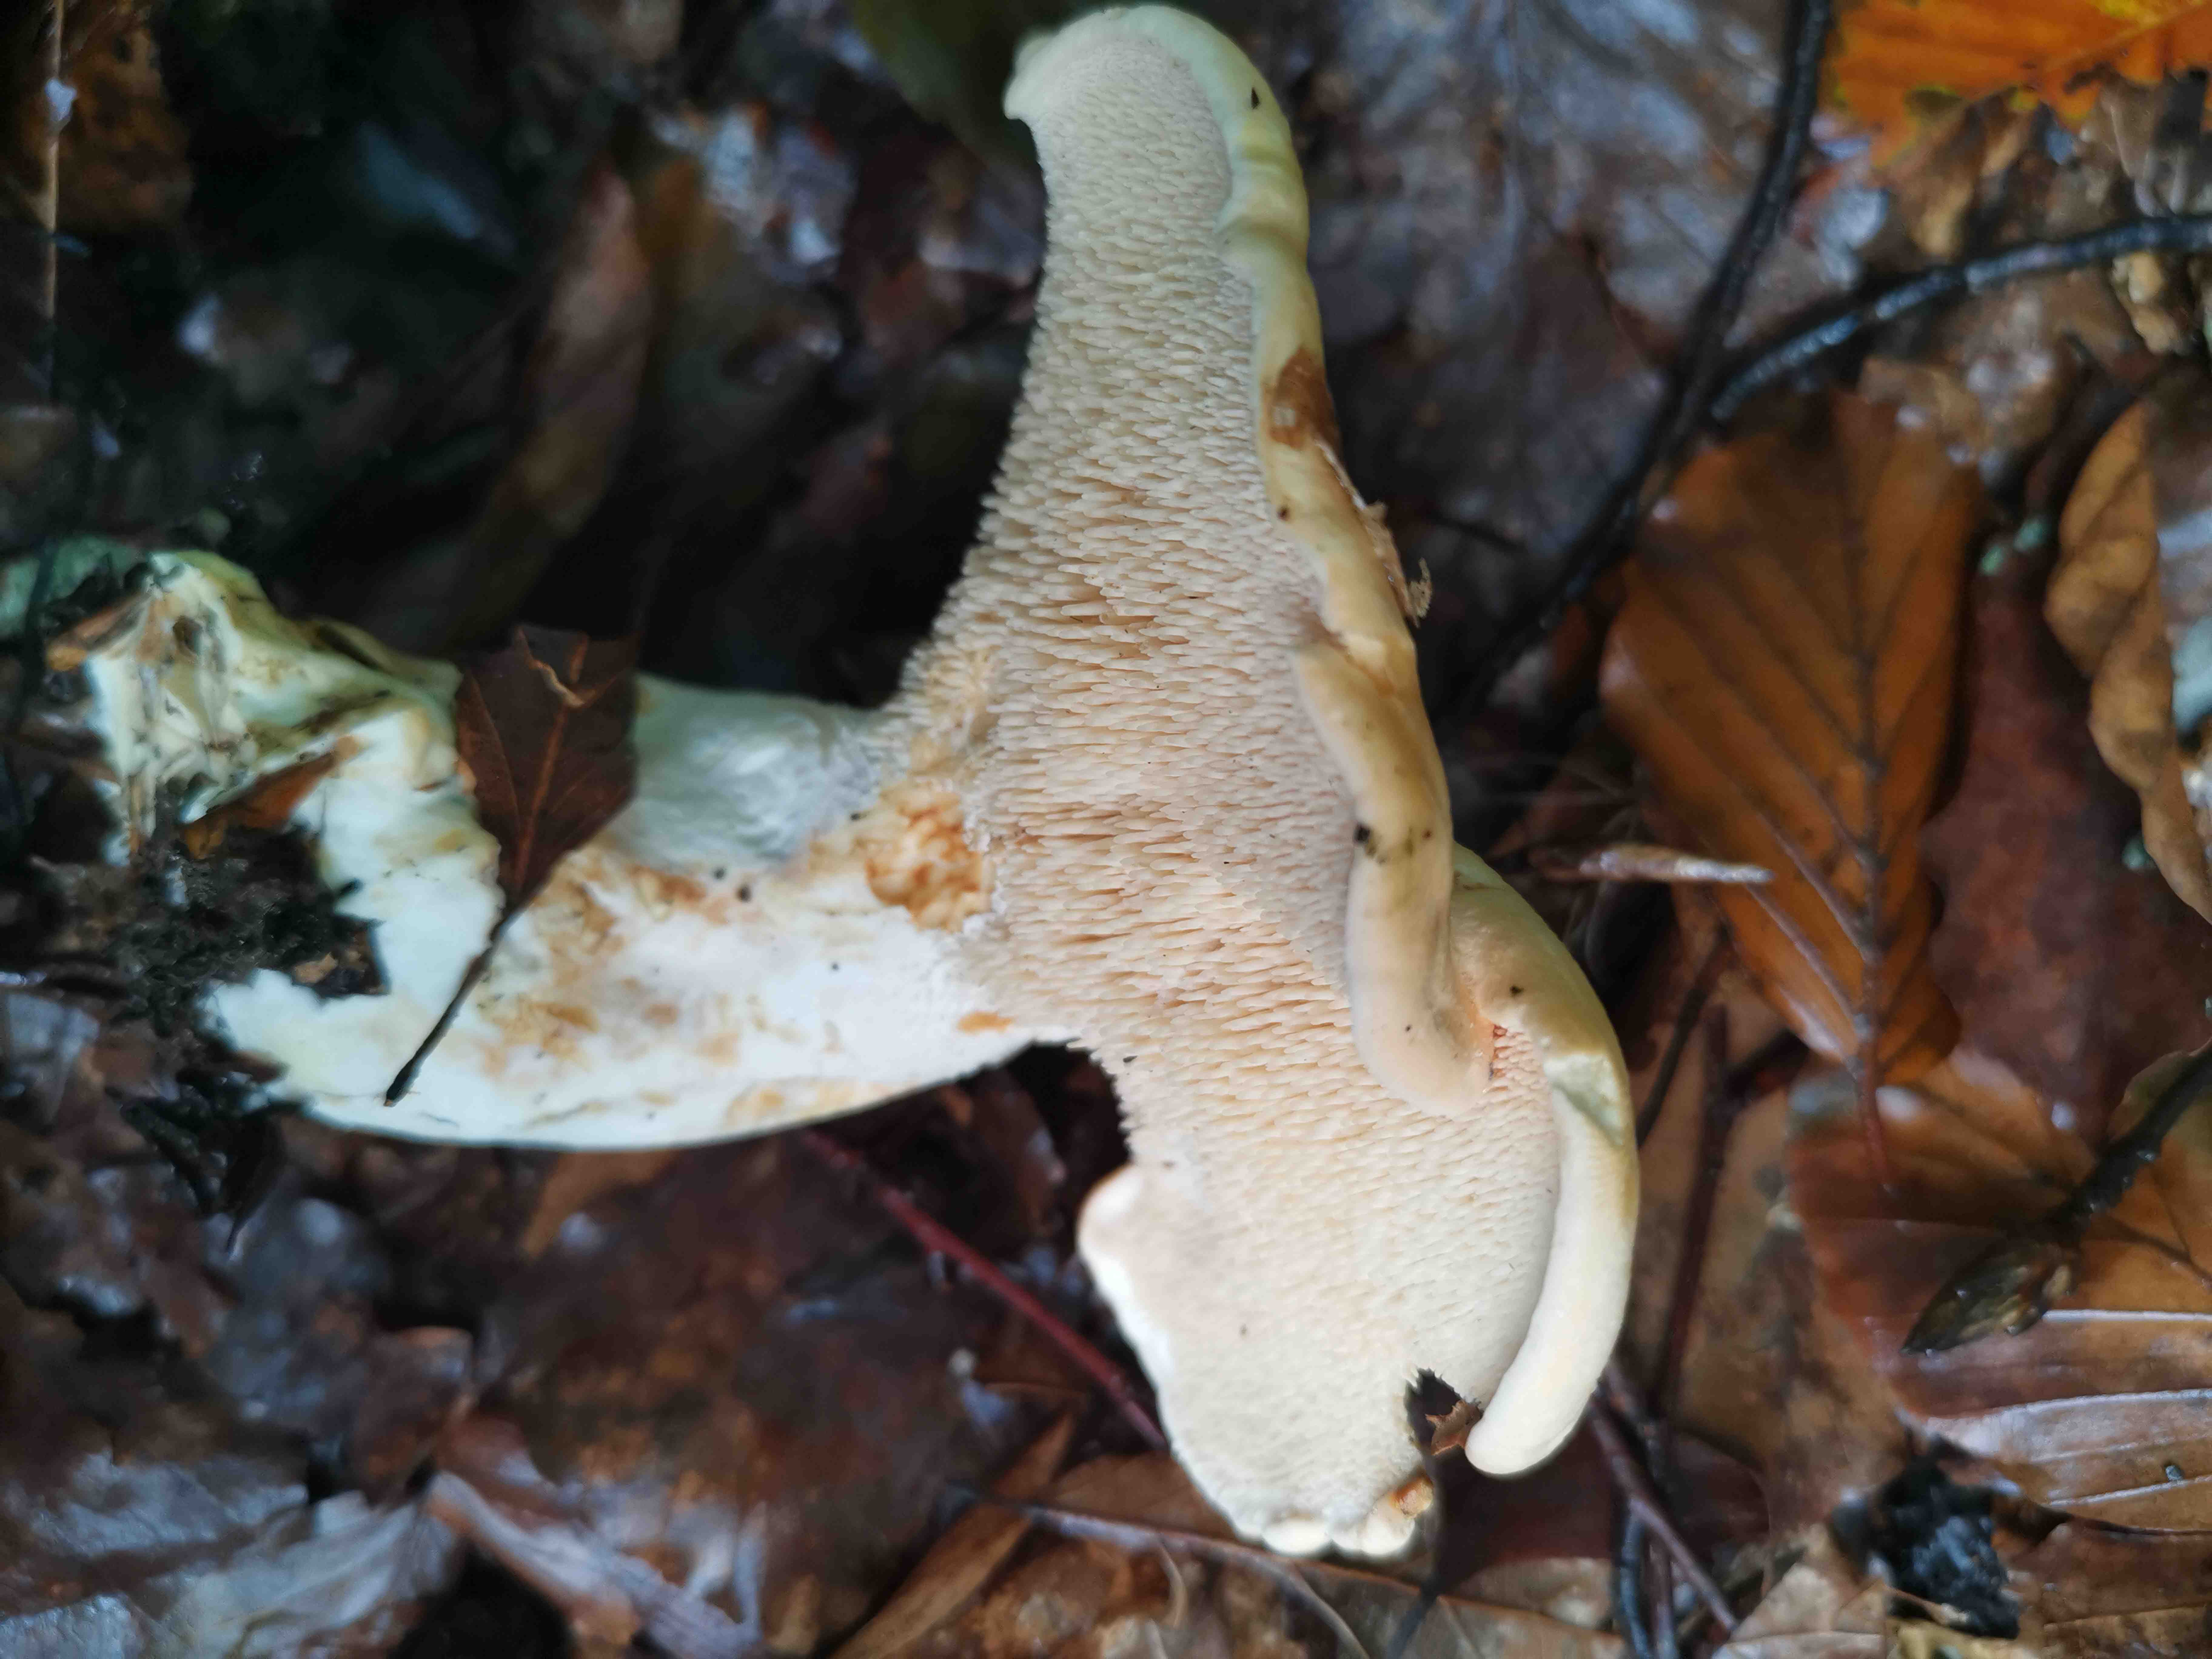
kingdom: Fungi
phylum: Basidiomycota
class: Agaricomycetes
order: Cantharellales
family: Hydnaceae
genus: Hydnum
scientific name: Hydnum repandum
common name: almindelig pigsvamp
